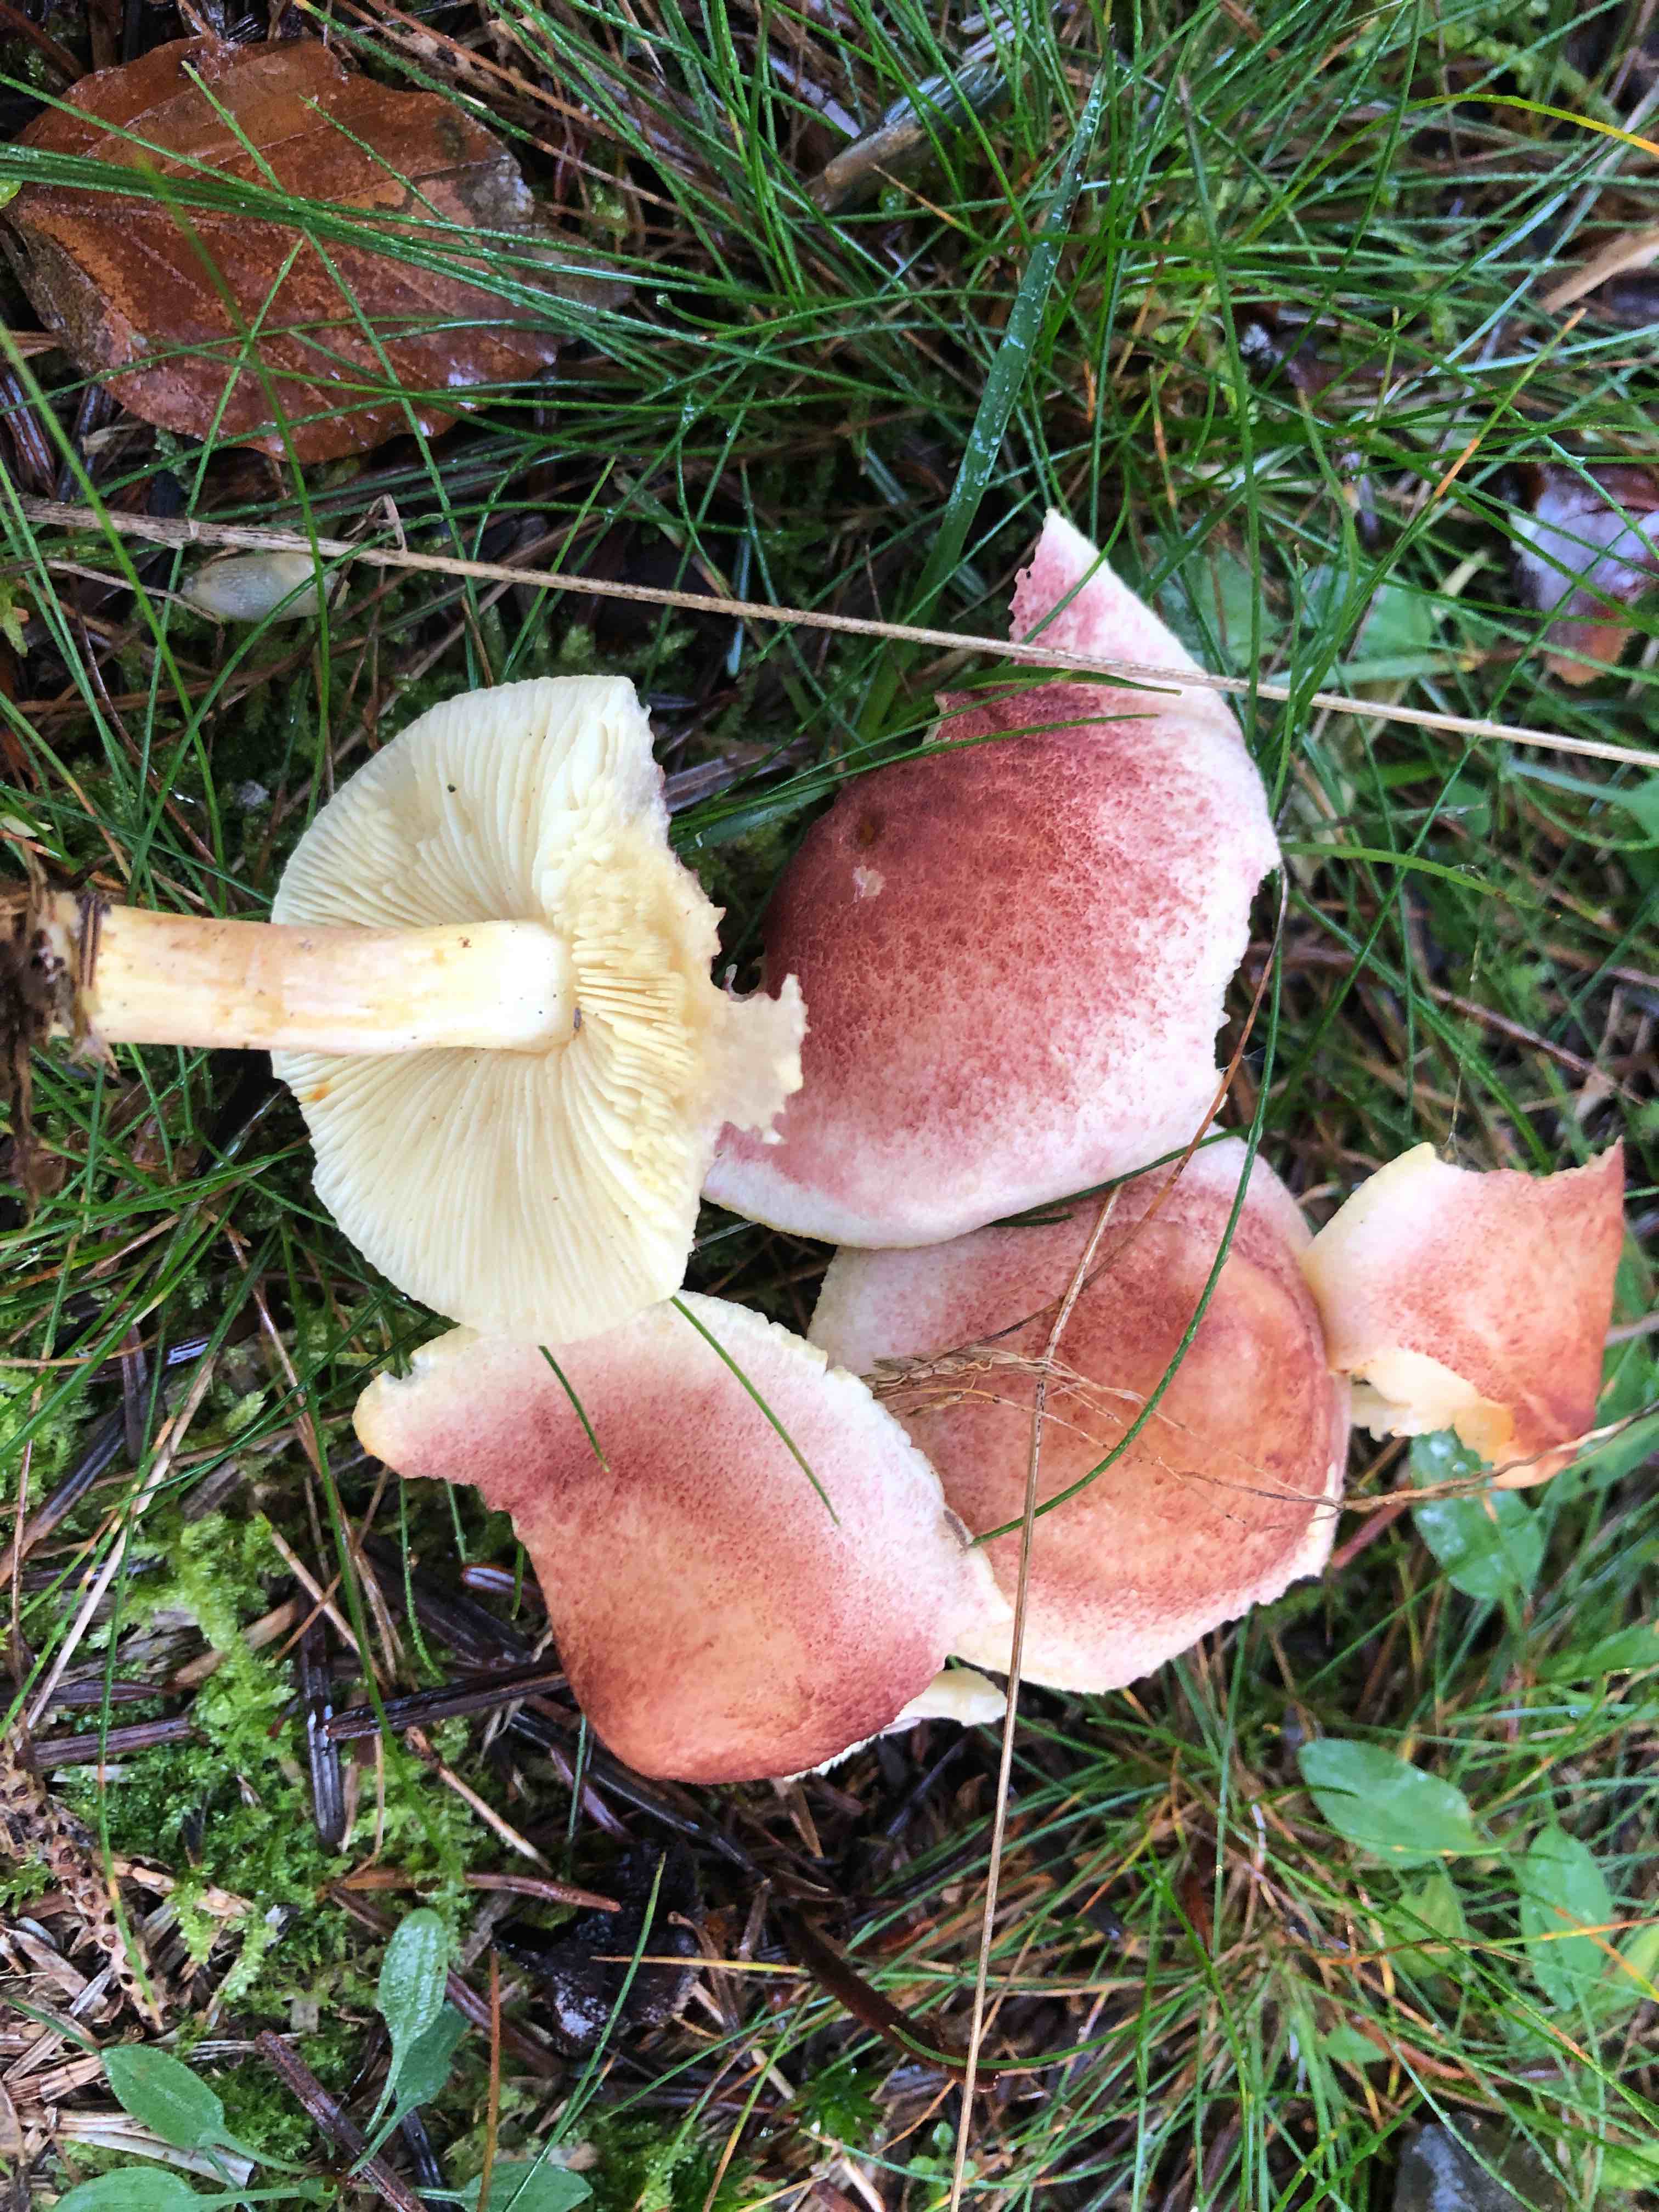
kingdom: Fungi
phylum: Basidiomycota
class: Agaricomycetes
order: Agaricales
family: Tricholomataceae
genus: Tricholomopsis
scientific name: Tricholomopsis rutilans
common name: purpur-væbnerhat
